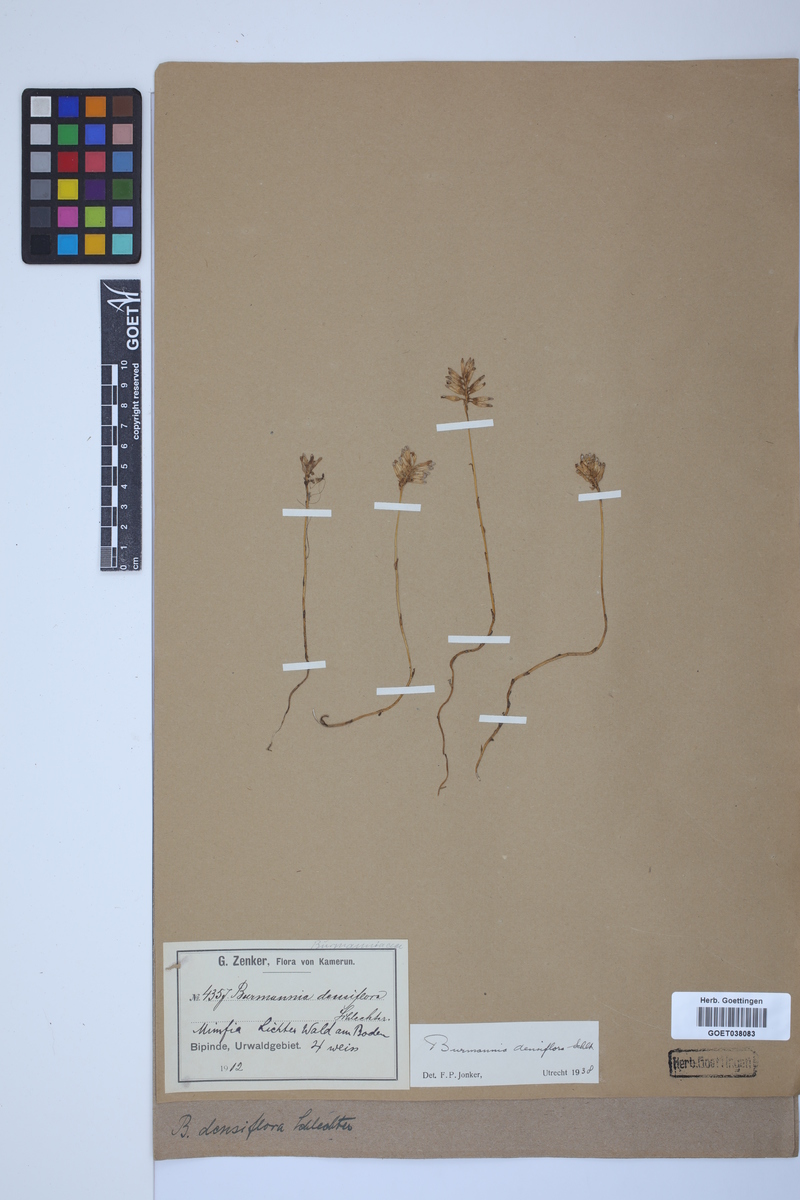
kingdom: Plantae
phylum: Tracheophyta
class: Liliopsida
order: Dioscoreales
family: Burmanniaceae
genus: Campylosiphon
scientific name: Campylosiphon congestus
